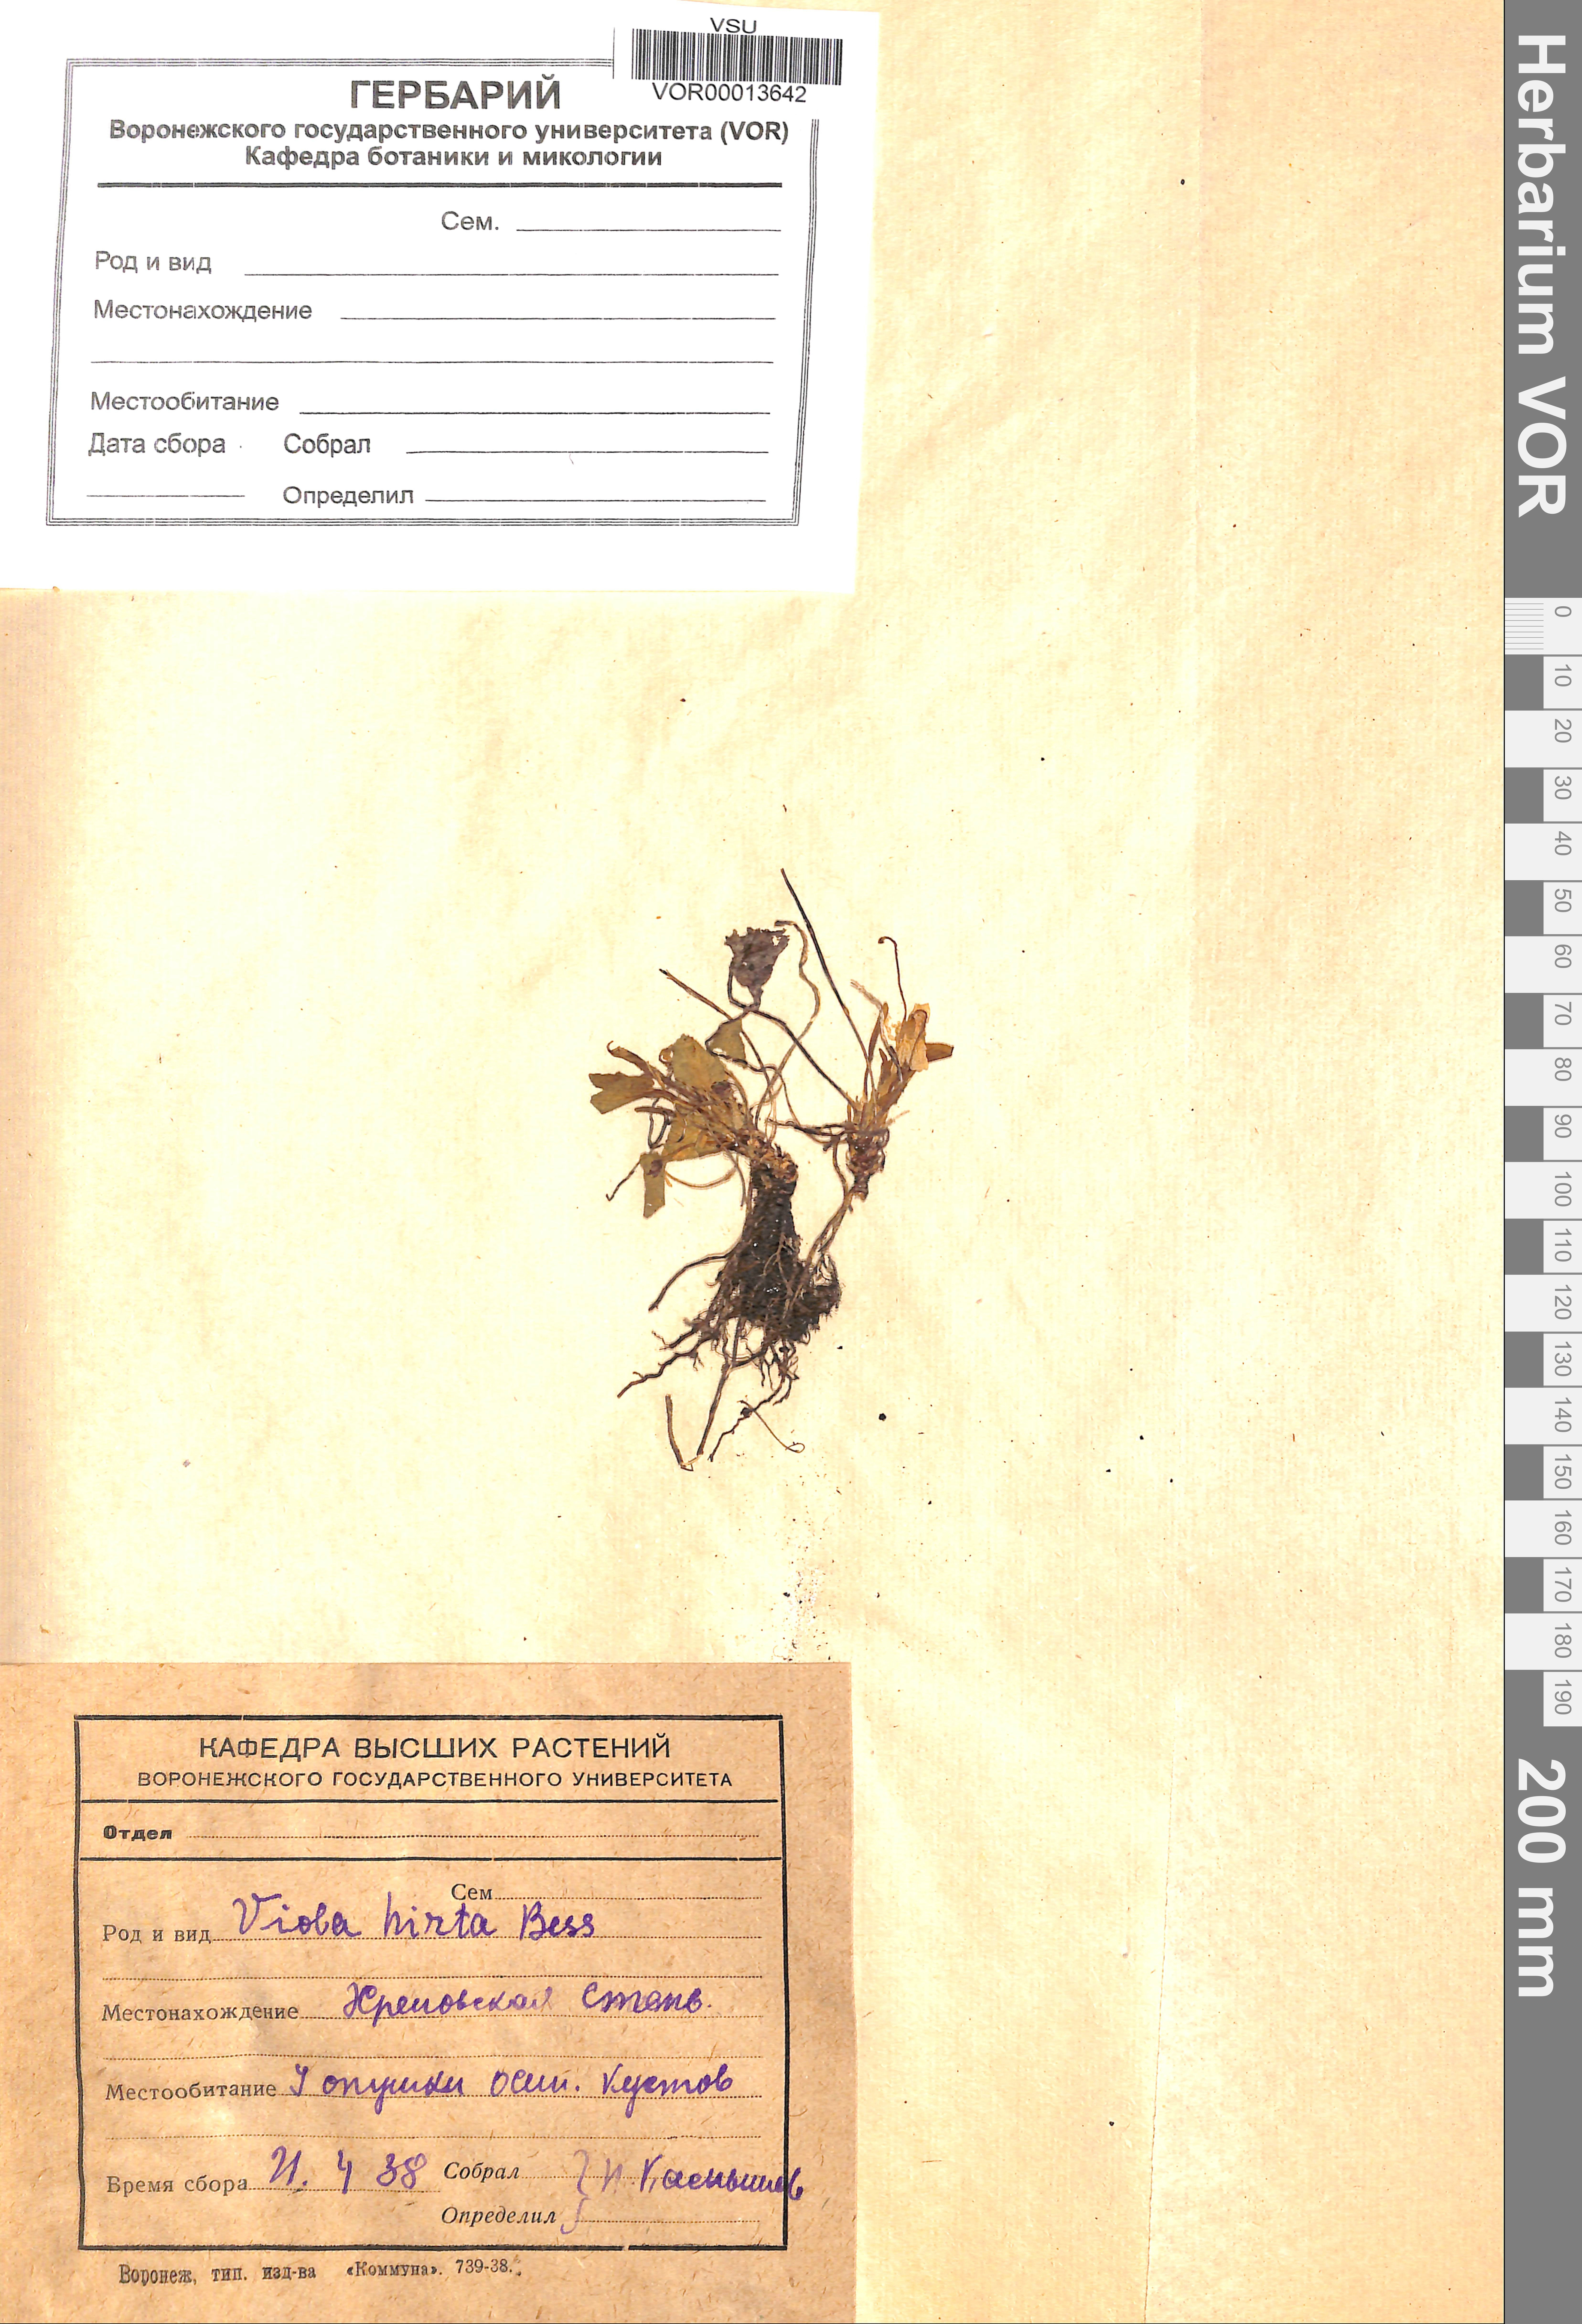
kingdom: Plantae
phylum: Tracheophyta
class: Magnoliopsida
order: Malpighiales
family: Violaceae
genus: Viola
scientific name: Viola hirta
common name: Hairy violet
